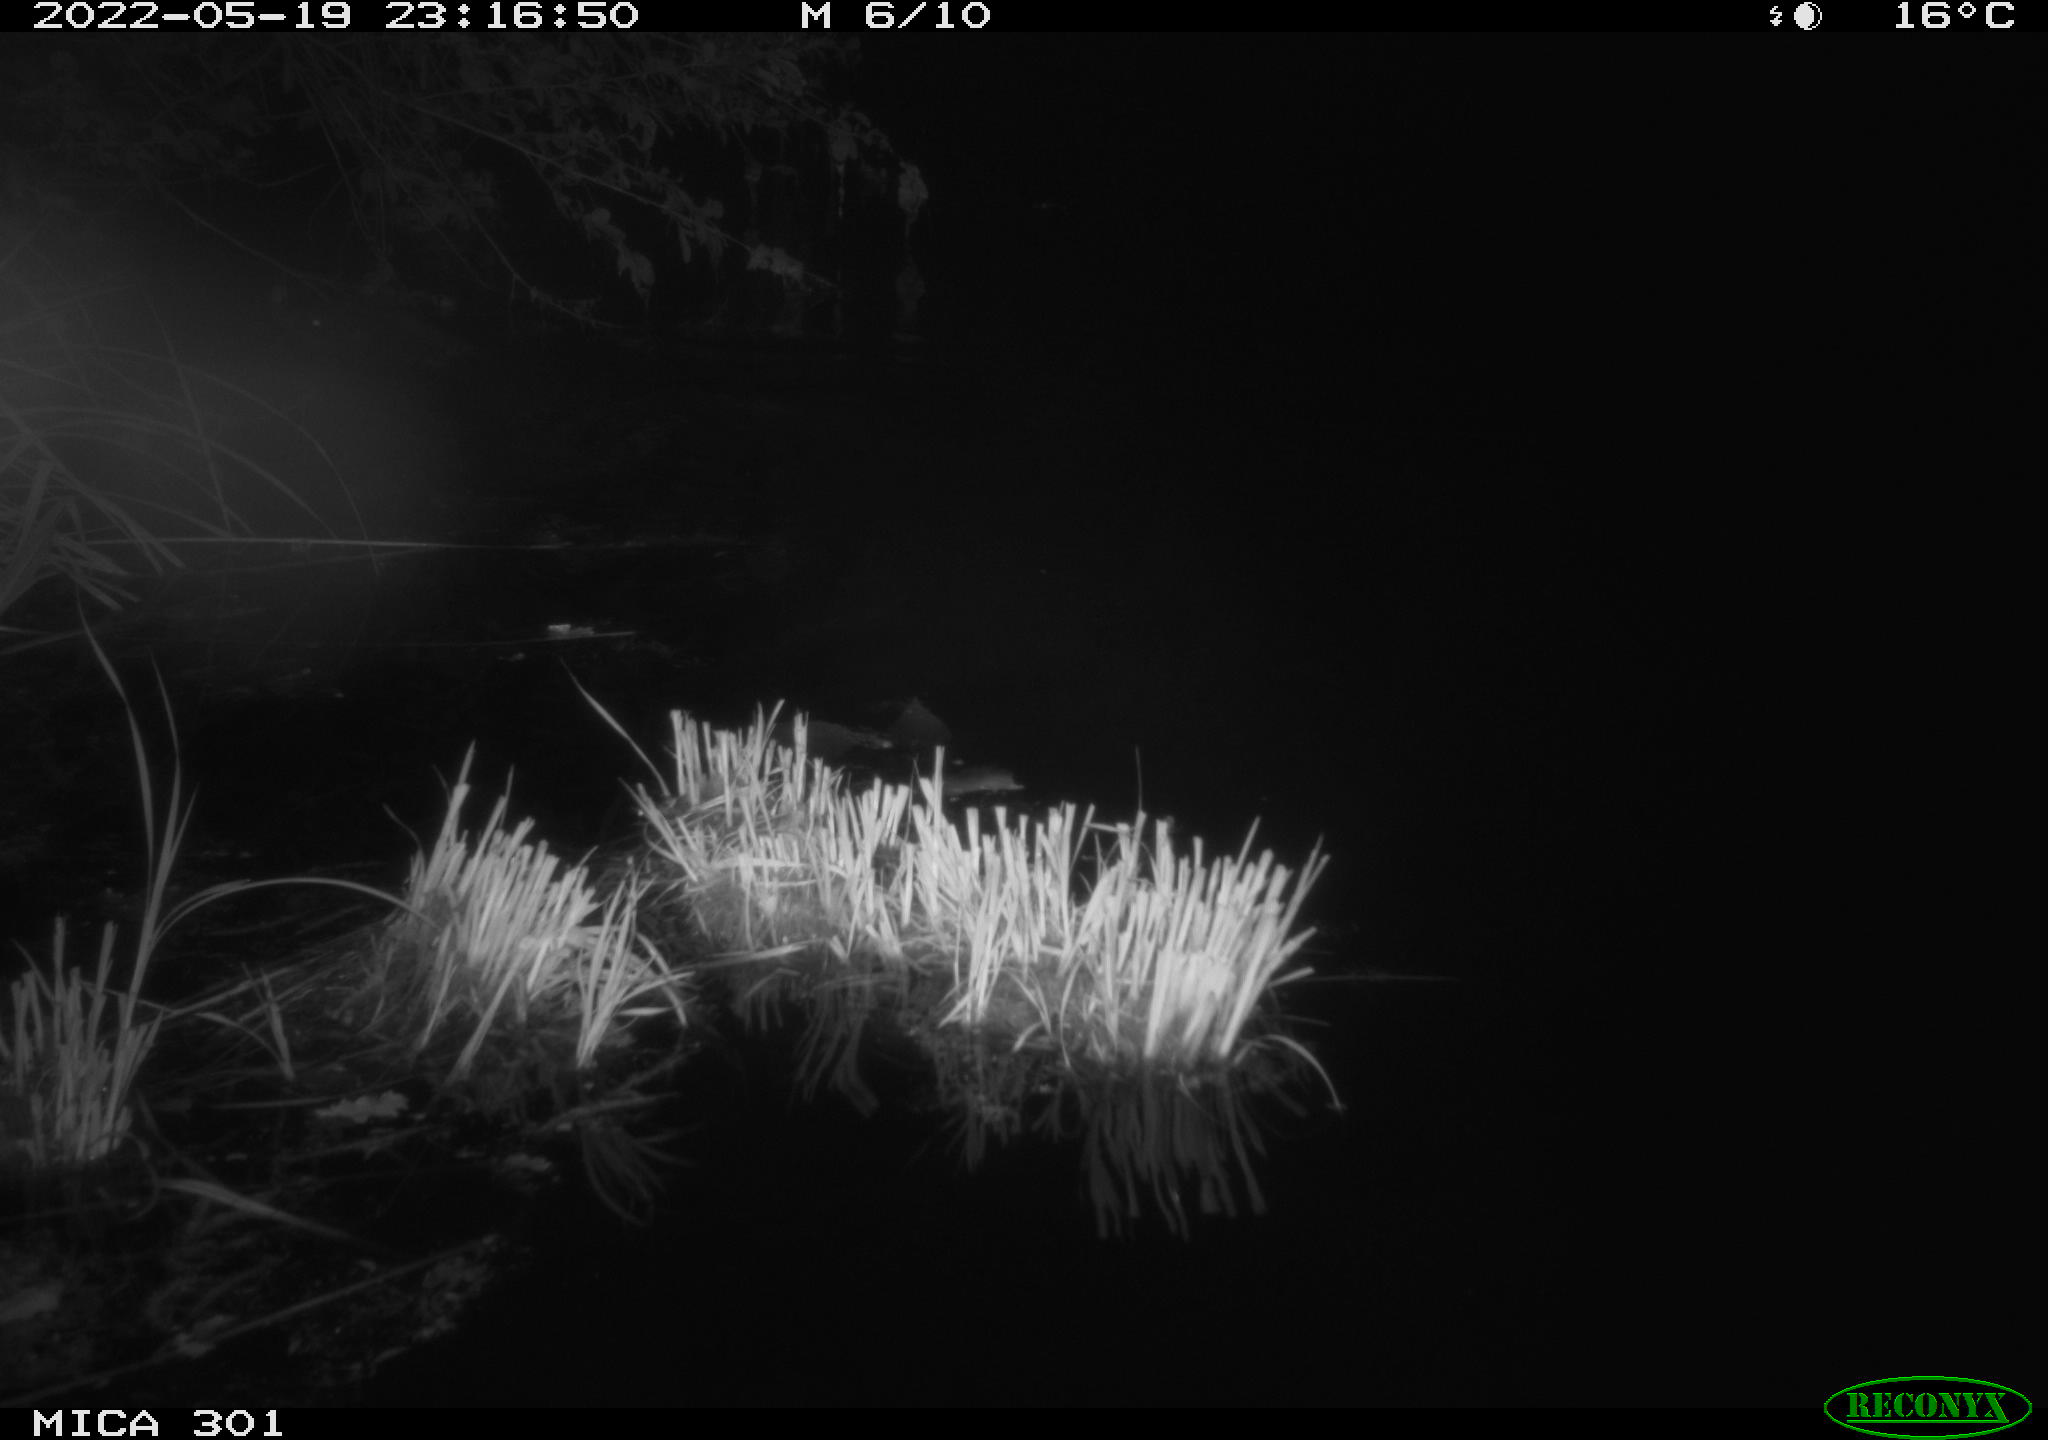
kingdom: Animalia
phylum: Chordata
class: Mammalia
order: Rodentia
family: Castoridae
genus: Castor
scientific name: Castor fiber
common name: Eurasian beaver
